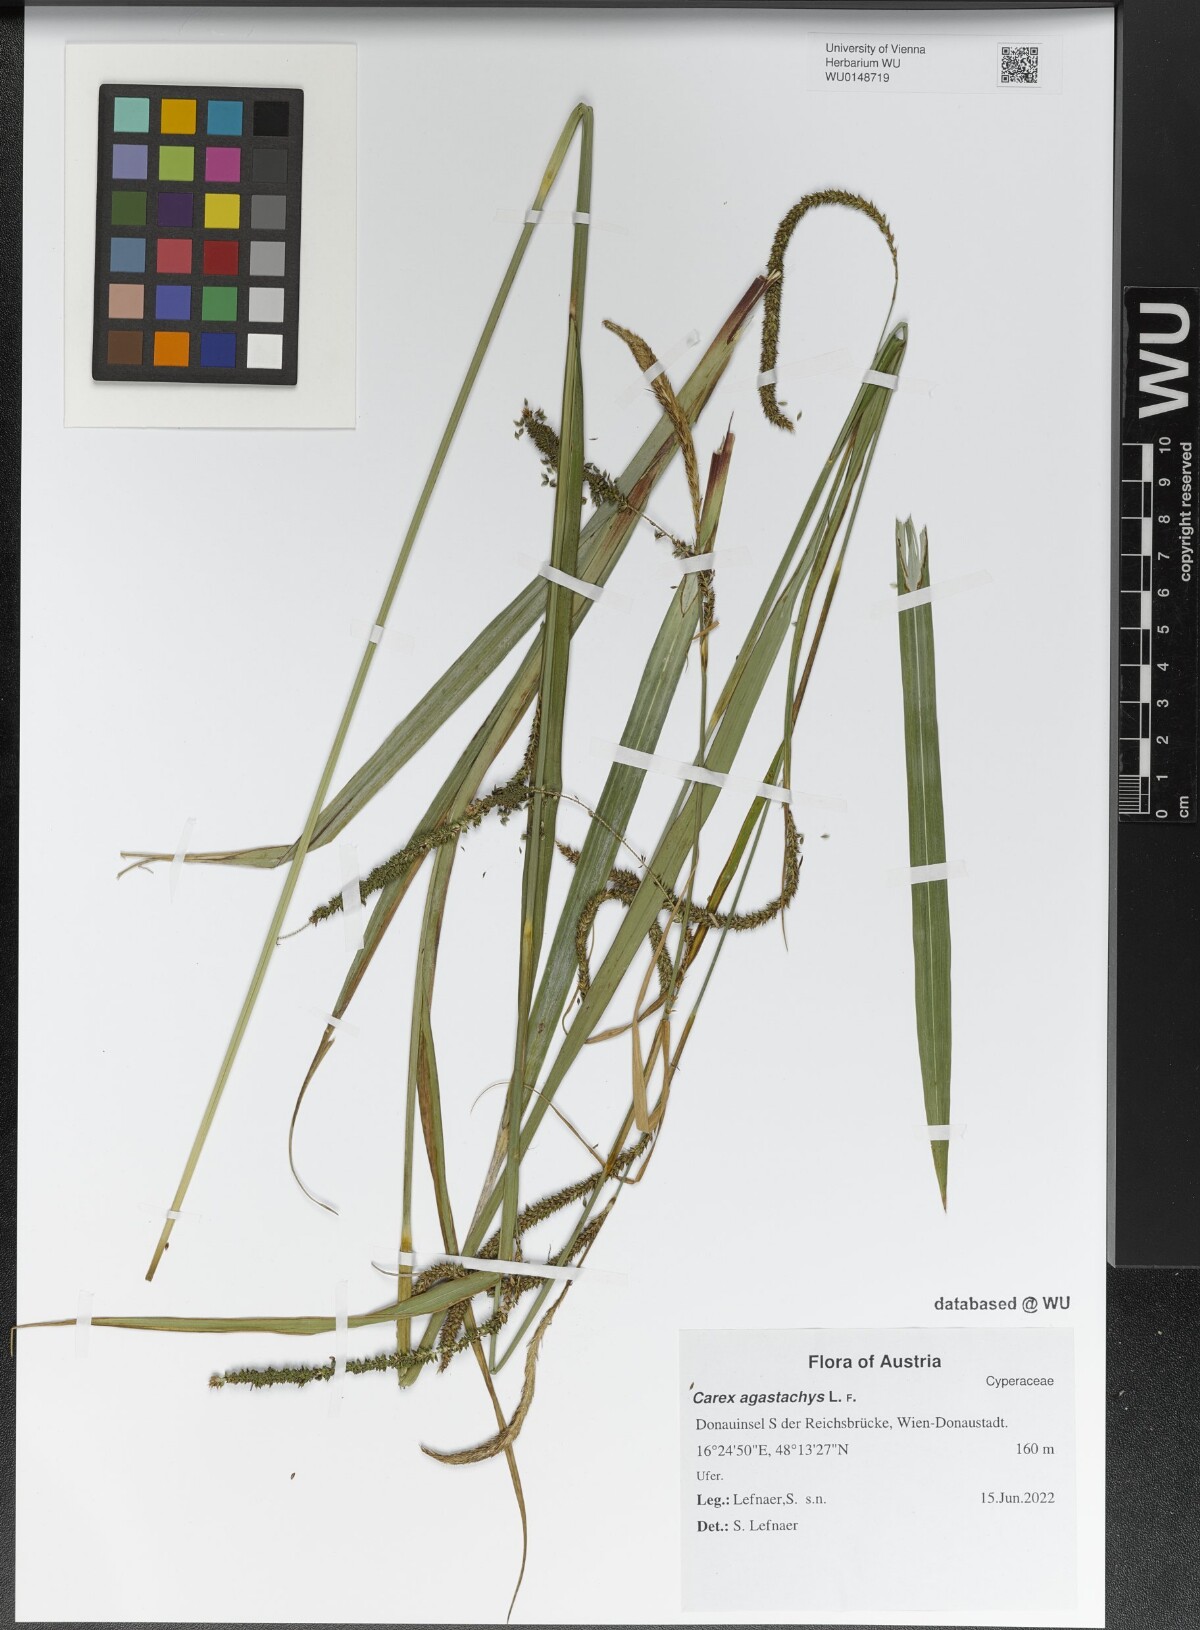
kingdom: Plantae
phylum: Tracheophyta
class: Liliopsida
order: Poales
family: Cyperaceae
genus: Carex
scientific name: Carex agastachys
